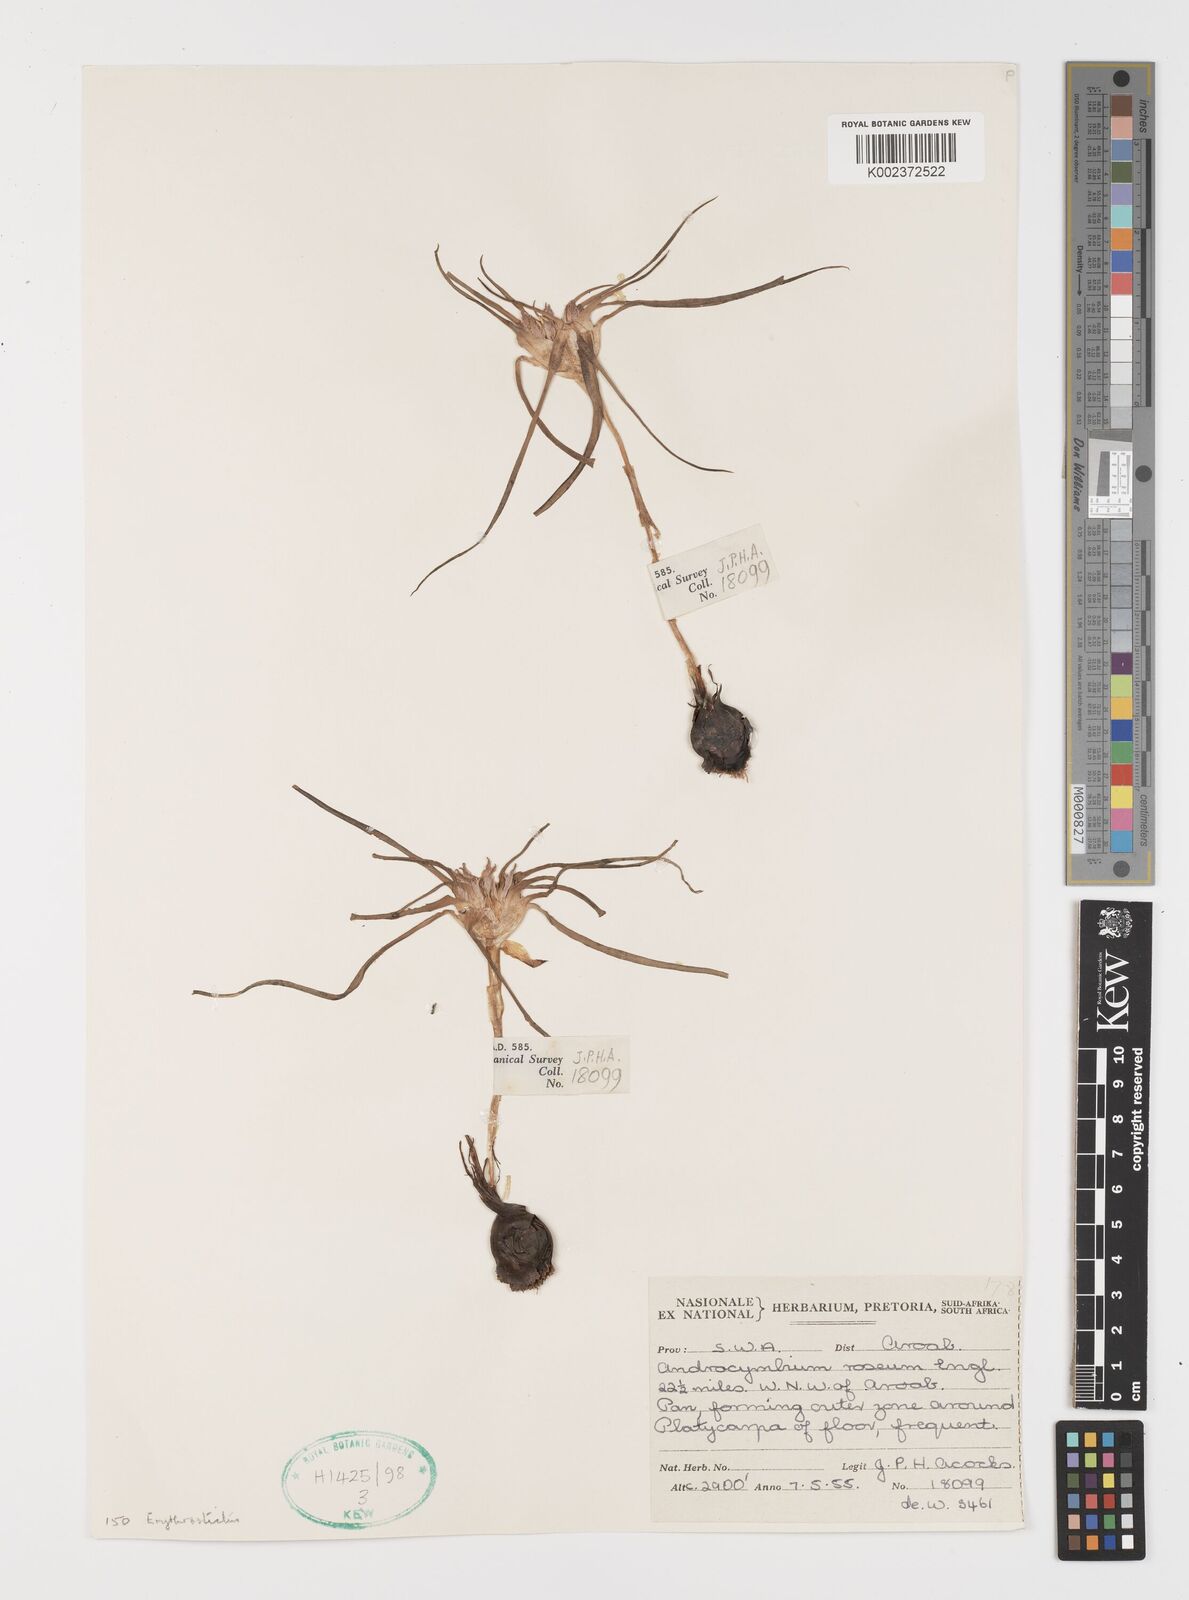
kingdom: Plantae
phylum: Tracheophyta
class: Liliopsida
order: Liliales
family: Colchicaceae
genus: Colchicum
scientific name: Colchicum roseum
